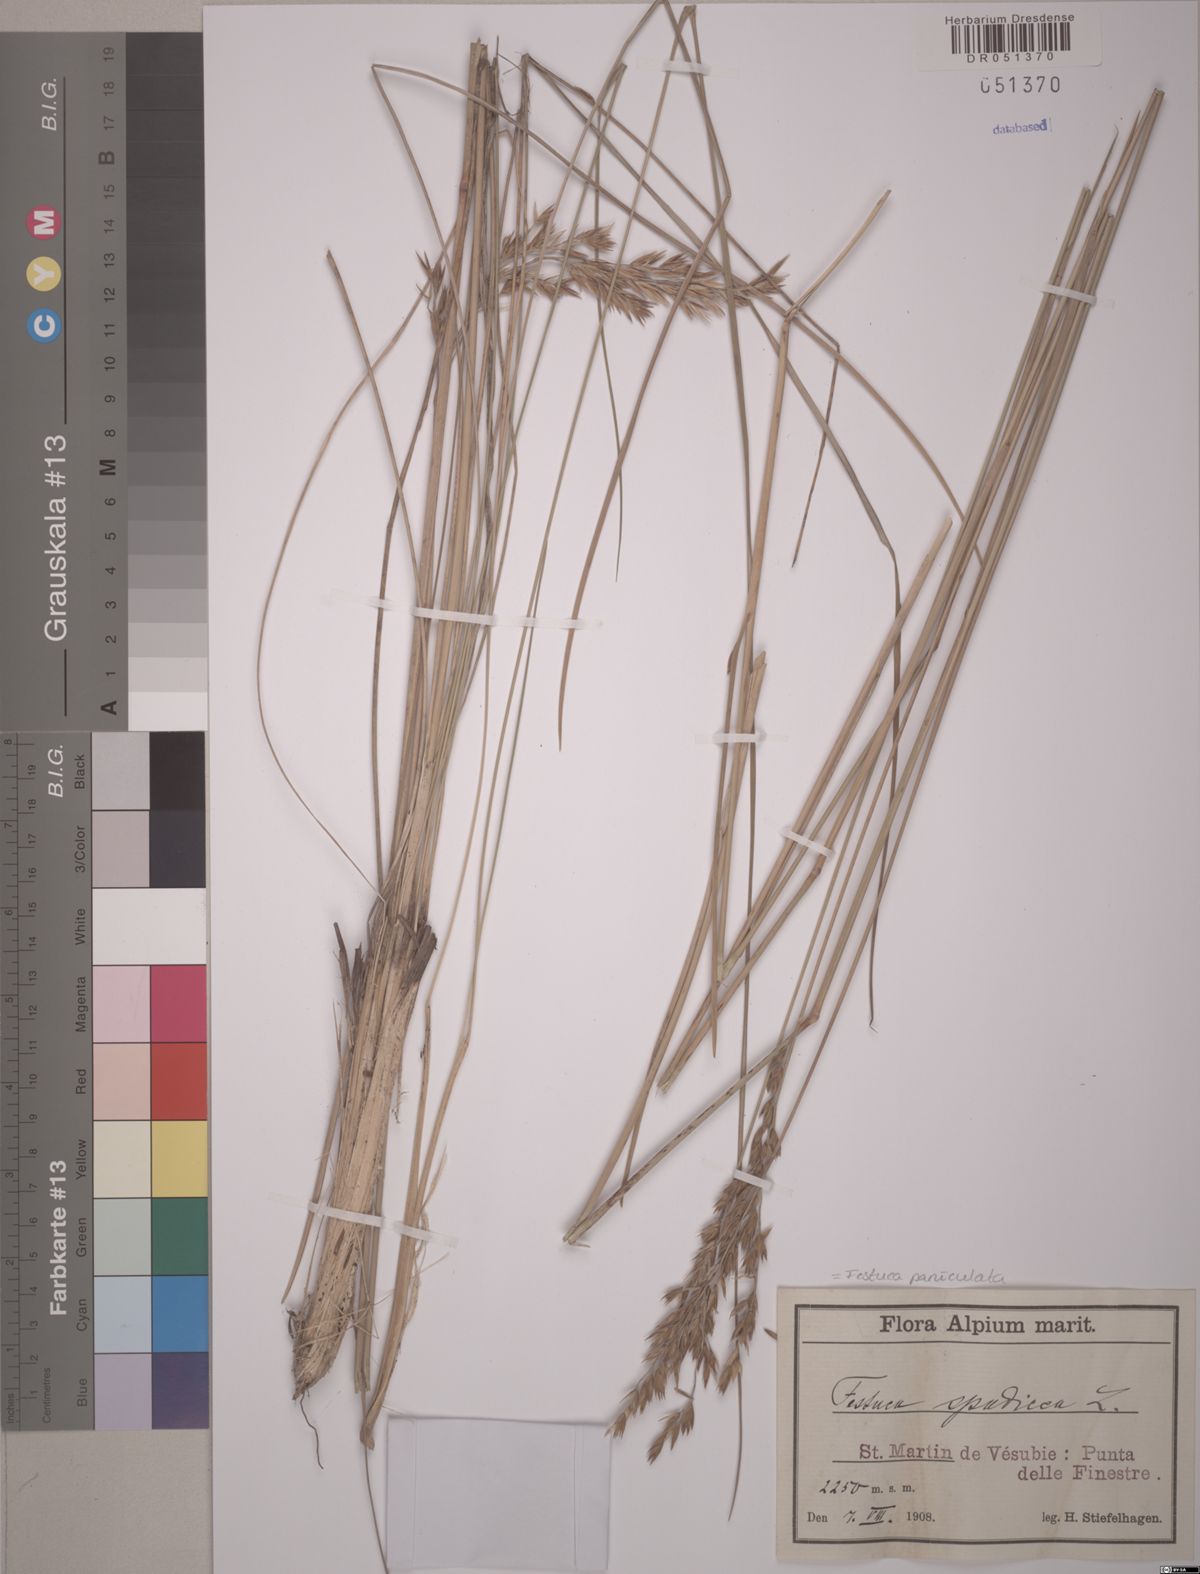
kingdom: Plantae
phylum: Tracheophyta
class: Liliopsida
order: Poales
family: Poaceae
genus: Patzkea
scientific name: Patzkea paniculata
